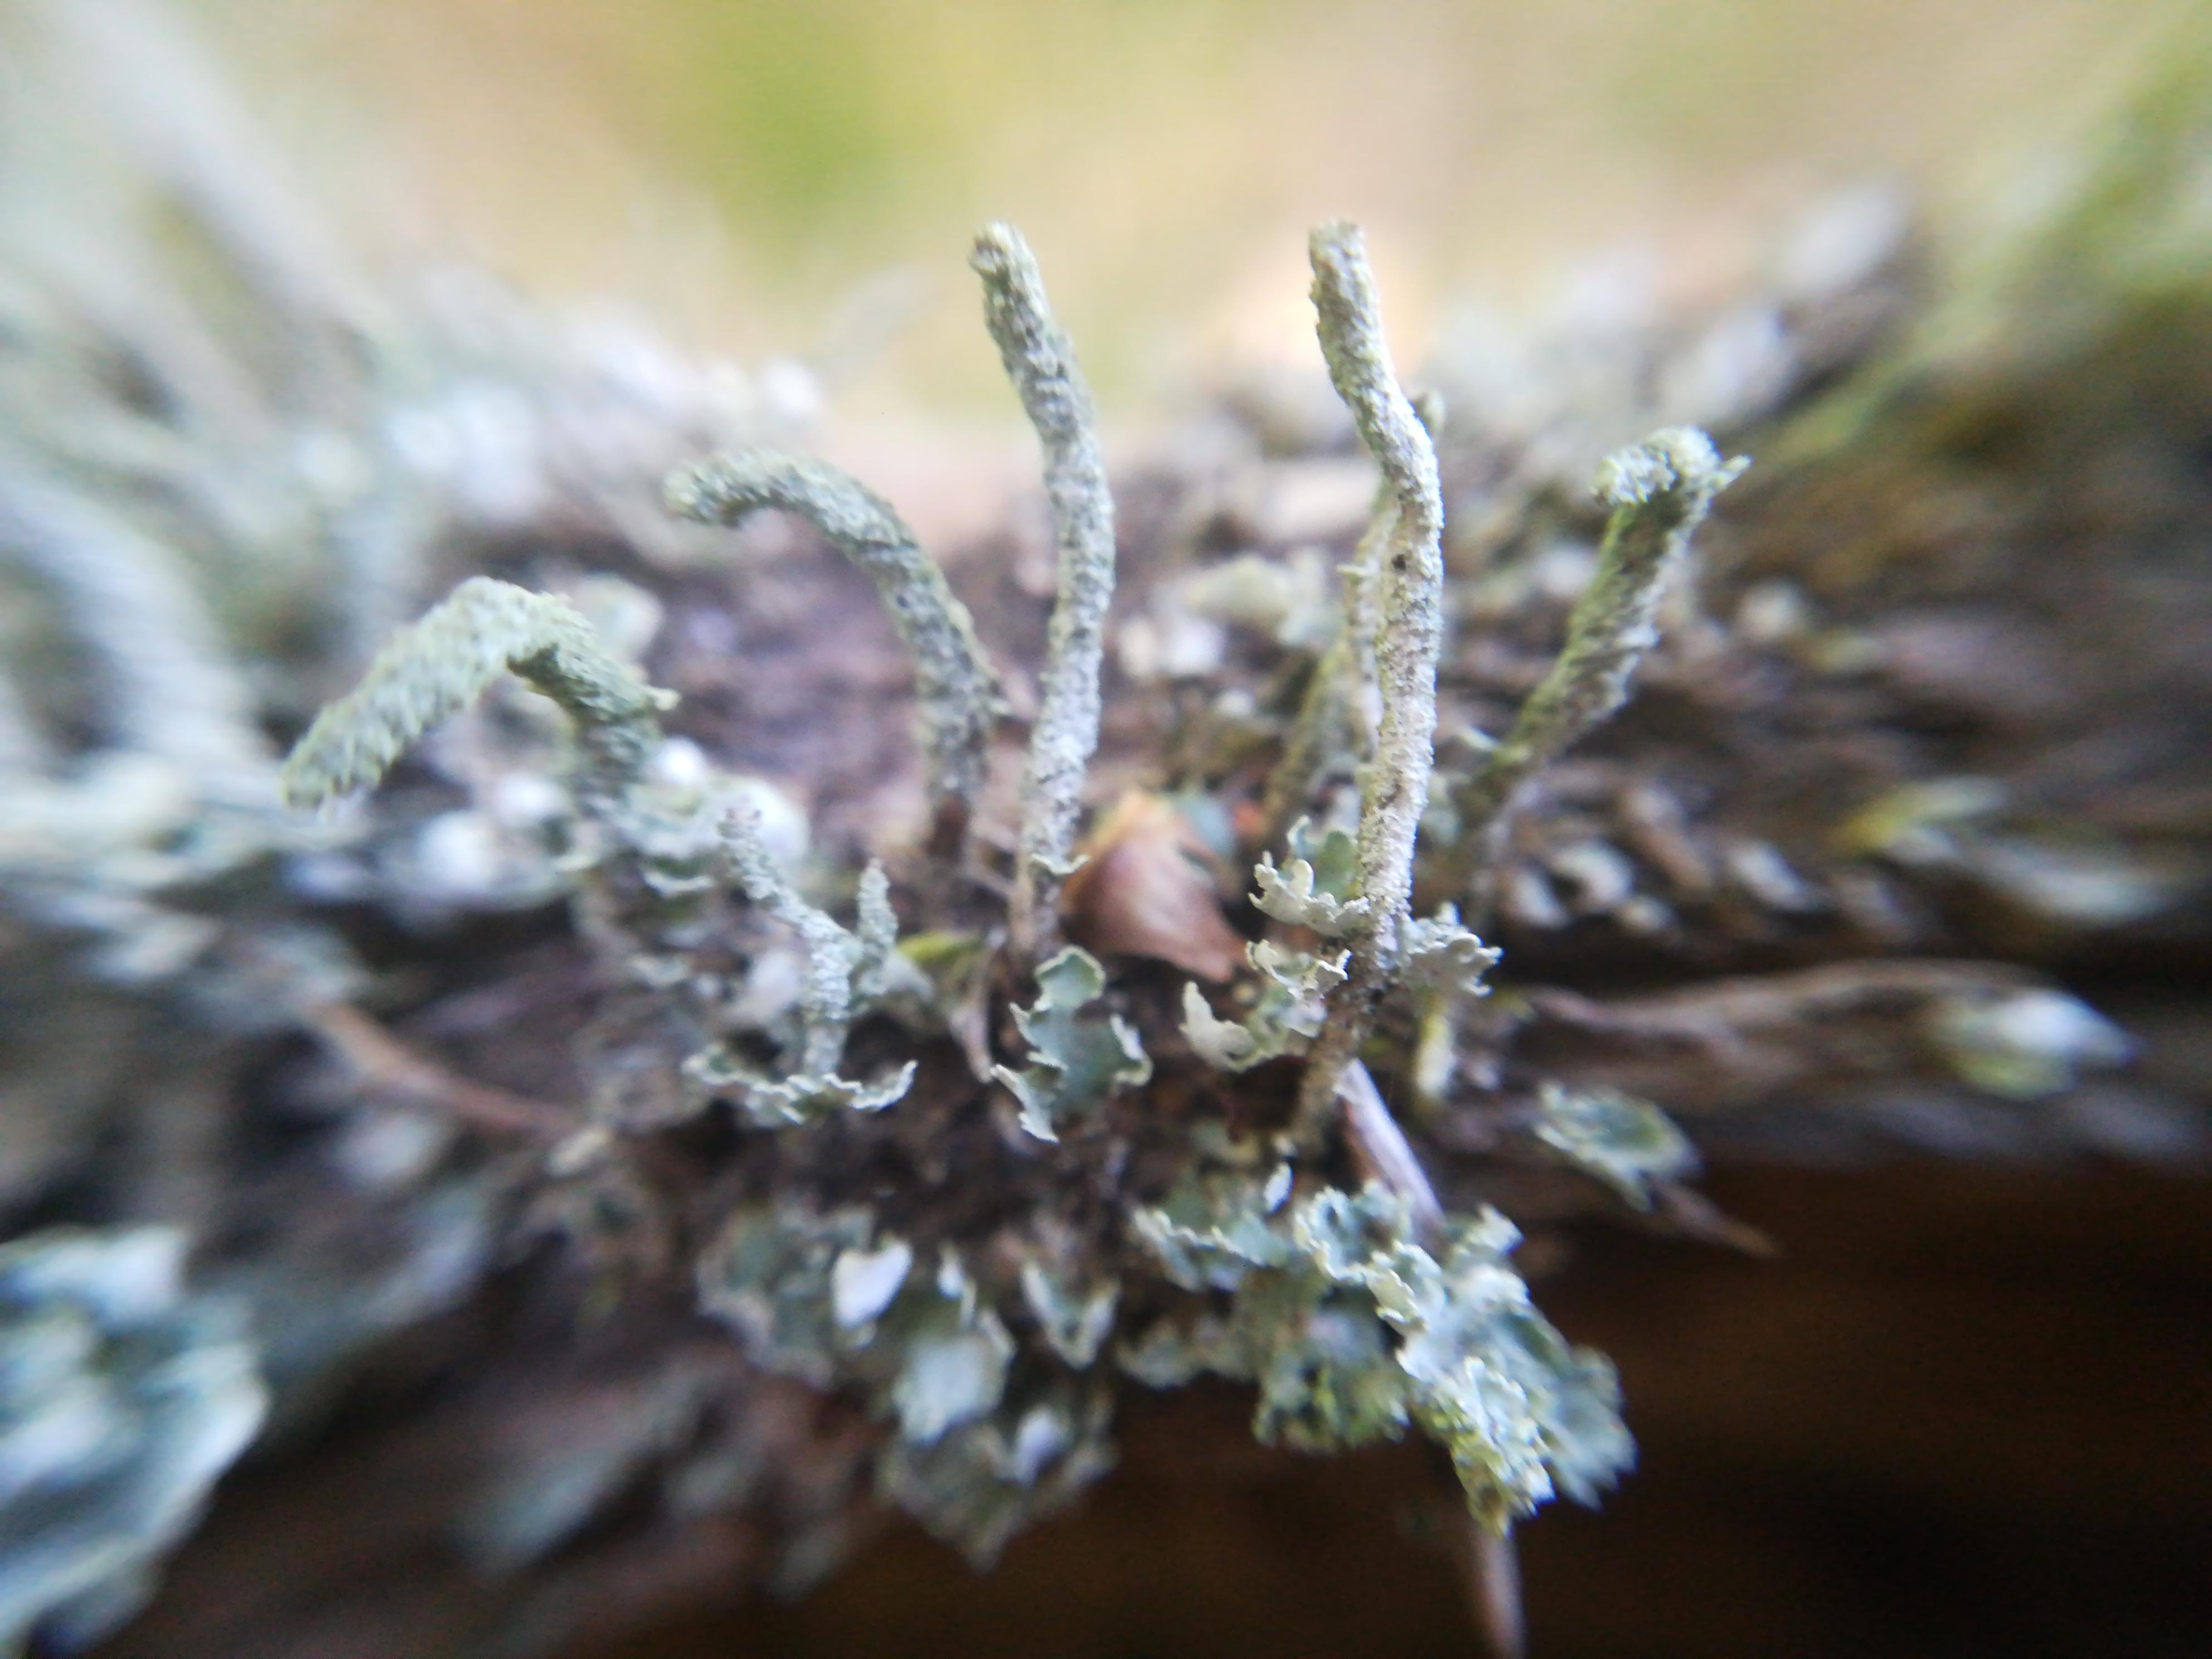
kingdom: Fungi
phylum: Ascomycota
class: Lecanoromycetes
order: Lecanorales
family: Cladoniaceae
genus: Cladonia
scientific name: Cladonia coniocraea
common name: træfods-bægerlav
